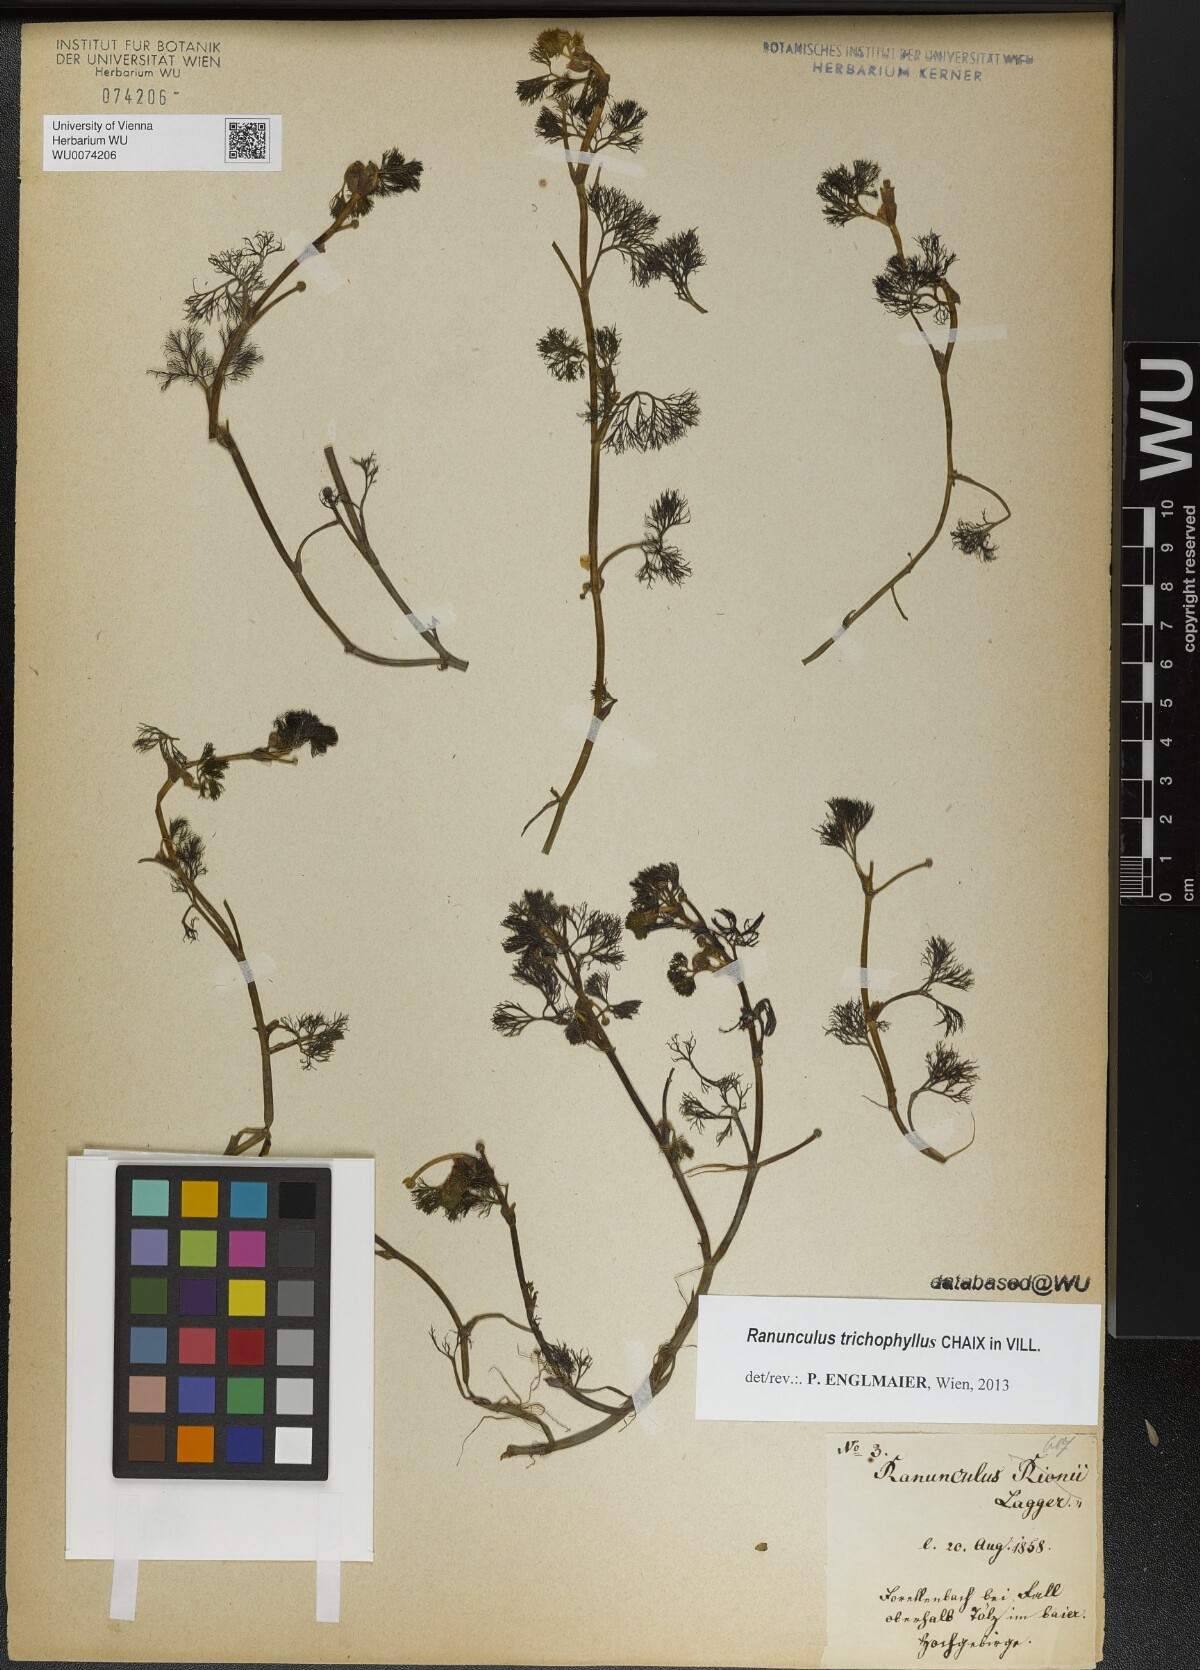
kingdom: Plantae
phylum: Tracheophyta
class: Magnoliopsida
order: Ranunculales
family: Ranunculaceae
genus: Ranunculus
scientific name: Ranunculus trichophyllus
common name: Thread-leaved water-crowfoot
